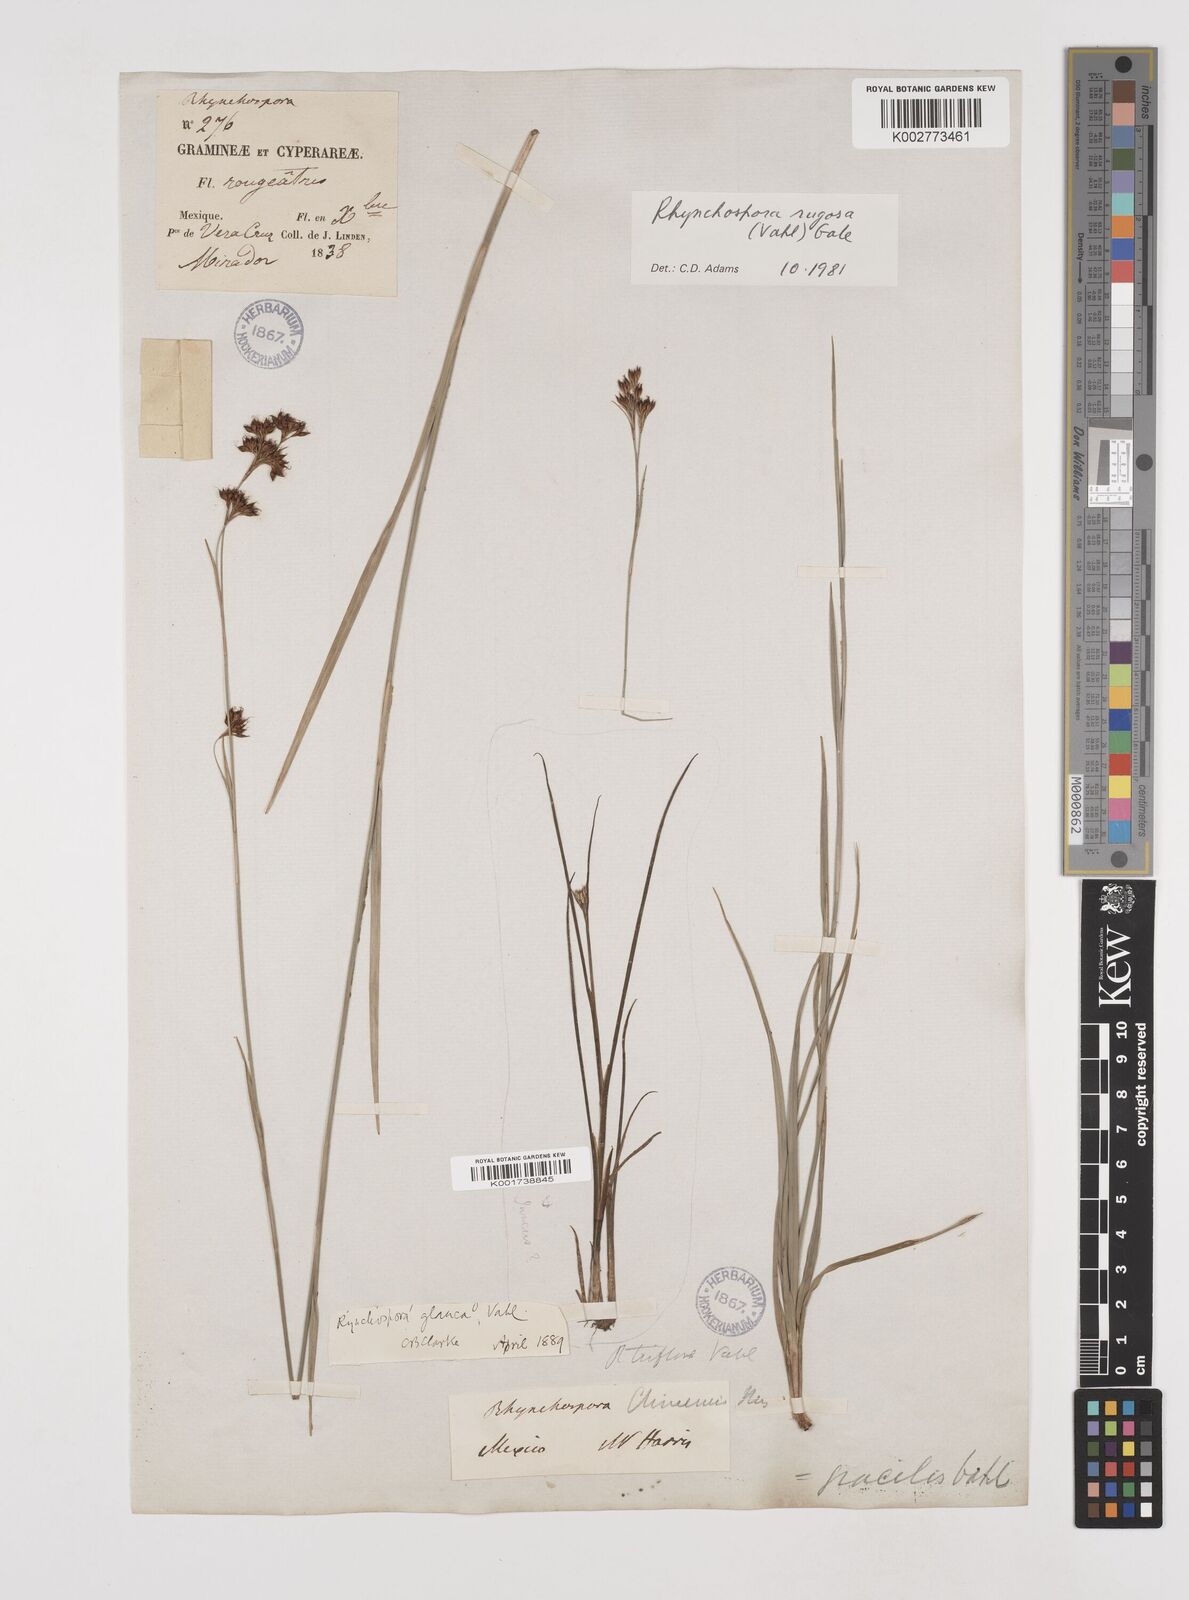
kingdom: Plantae
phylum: Tracheophyta
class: Liliopsida
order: Poales
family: Cyperaceae
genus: Rhynchospora
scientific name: Rhynchospora rugosa
